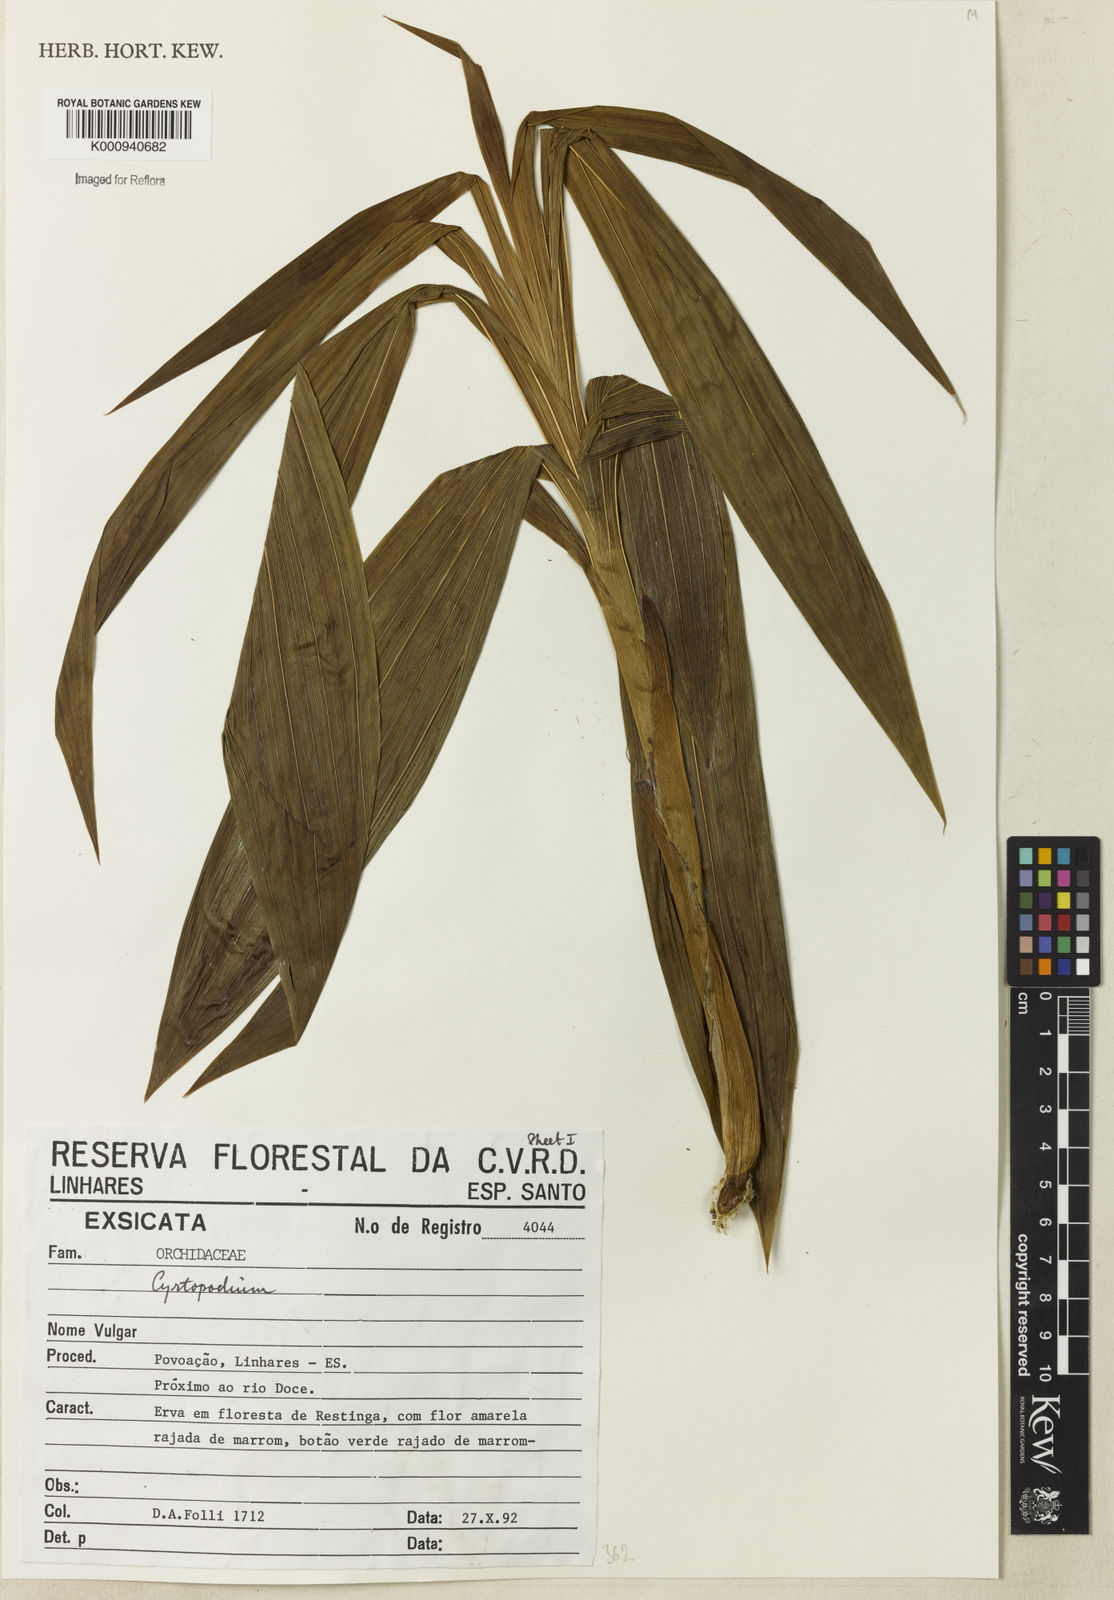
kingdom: Plantae
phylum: Tracheophyta
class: Liliopsida
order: Asparagales
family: Orchidaceae
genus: Cyrtopodium
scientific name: Cyrtopodium
